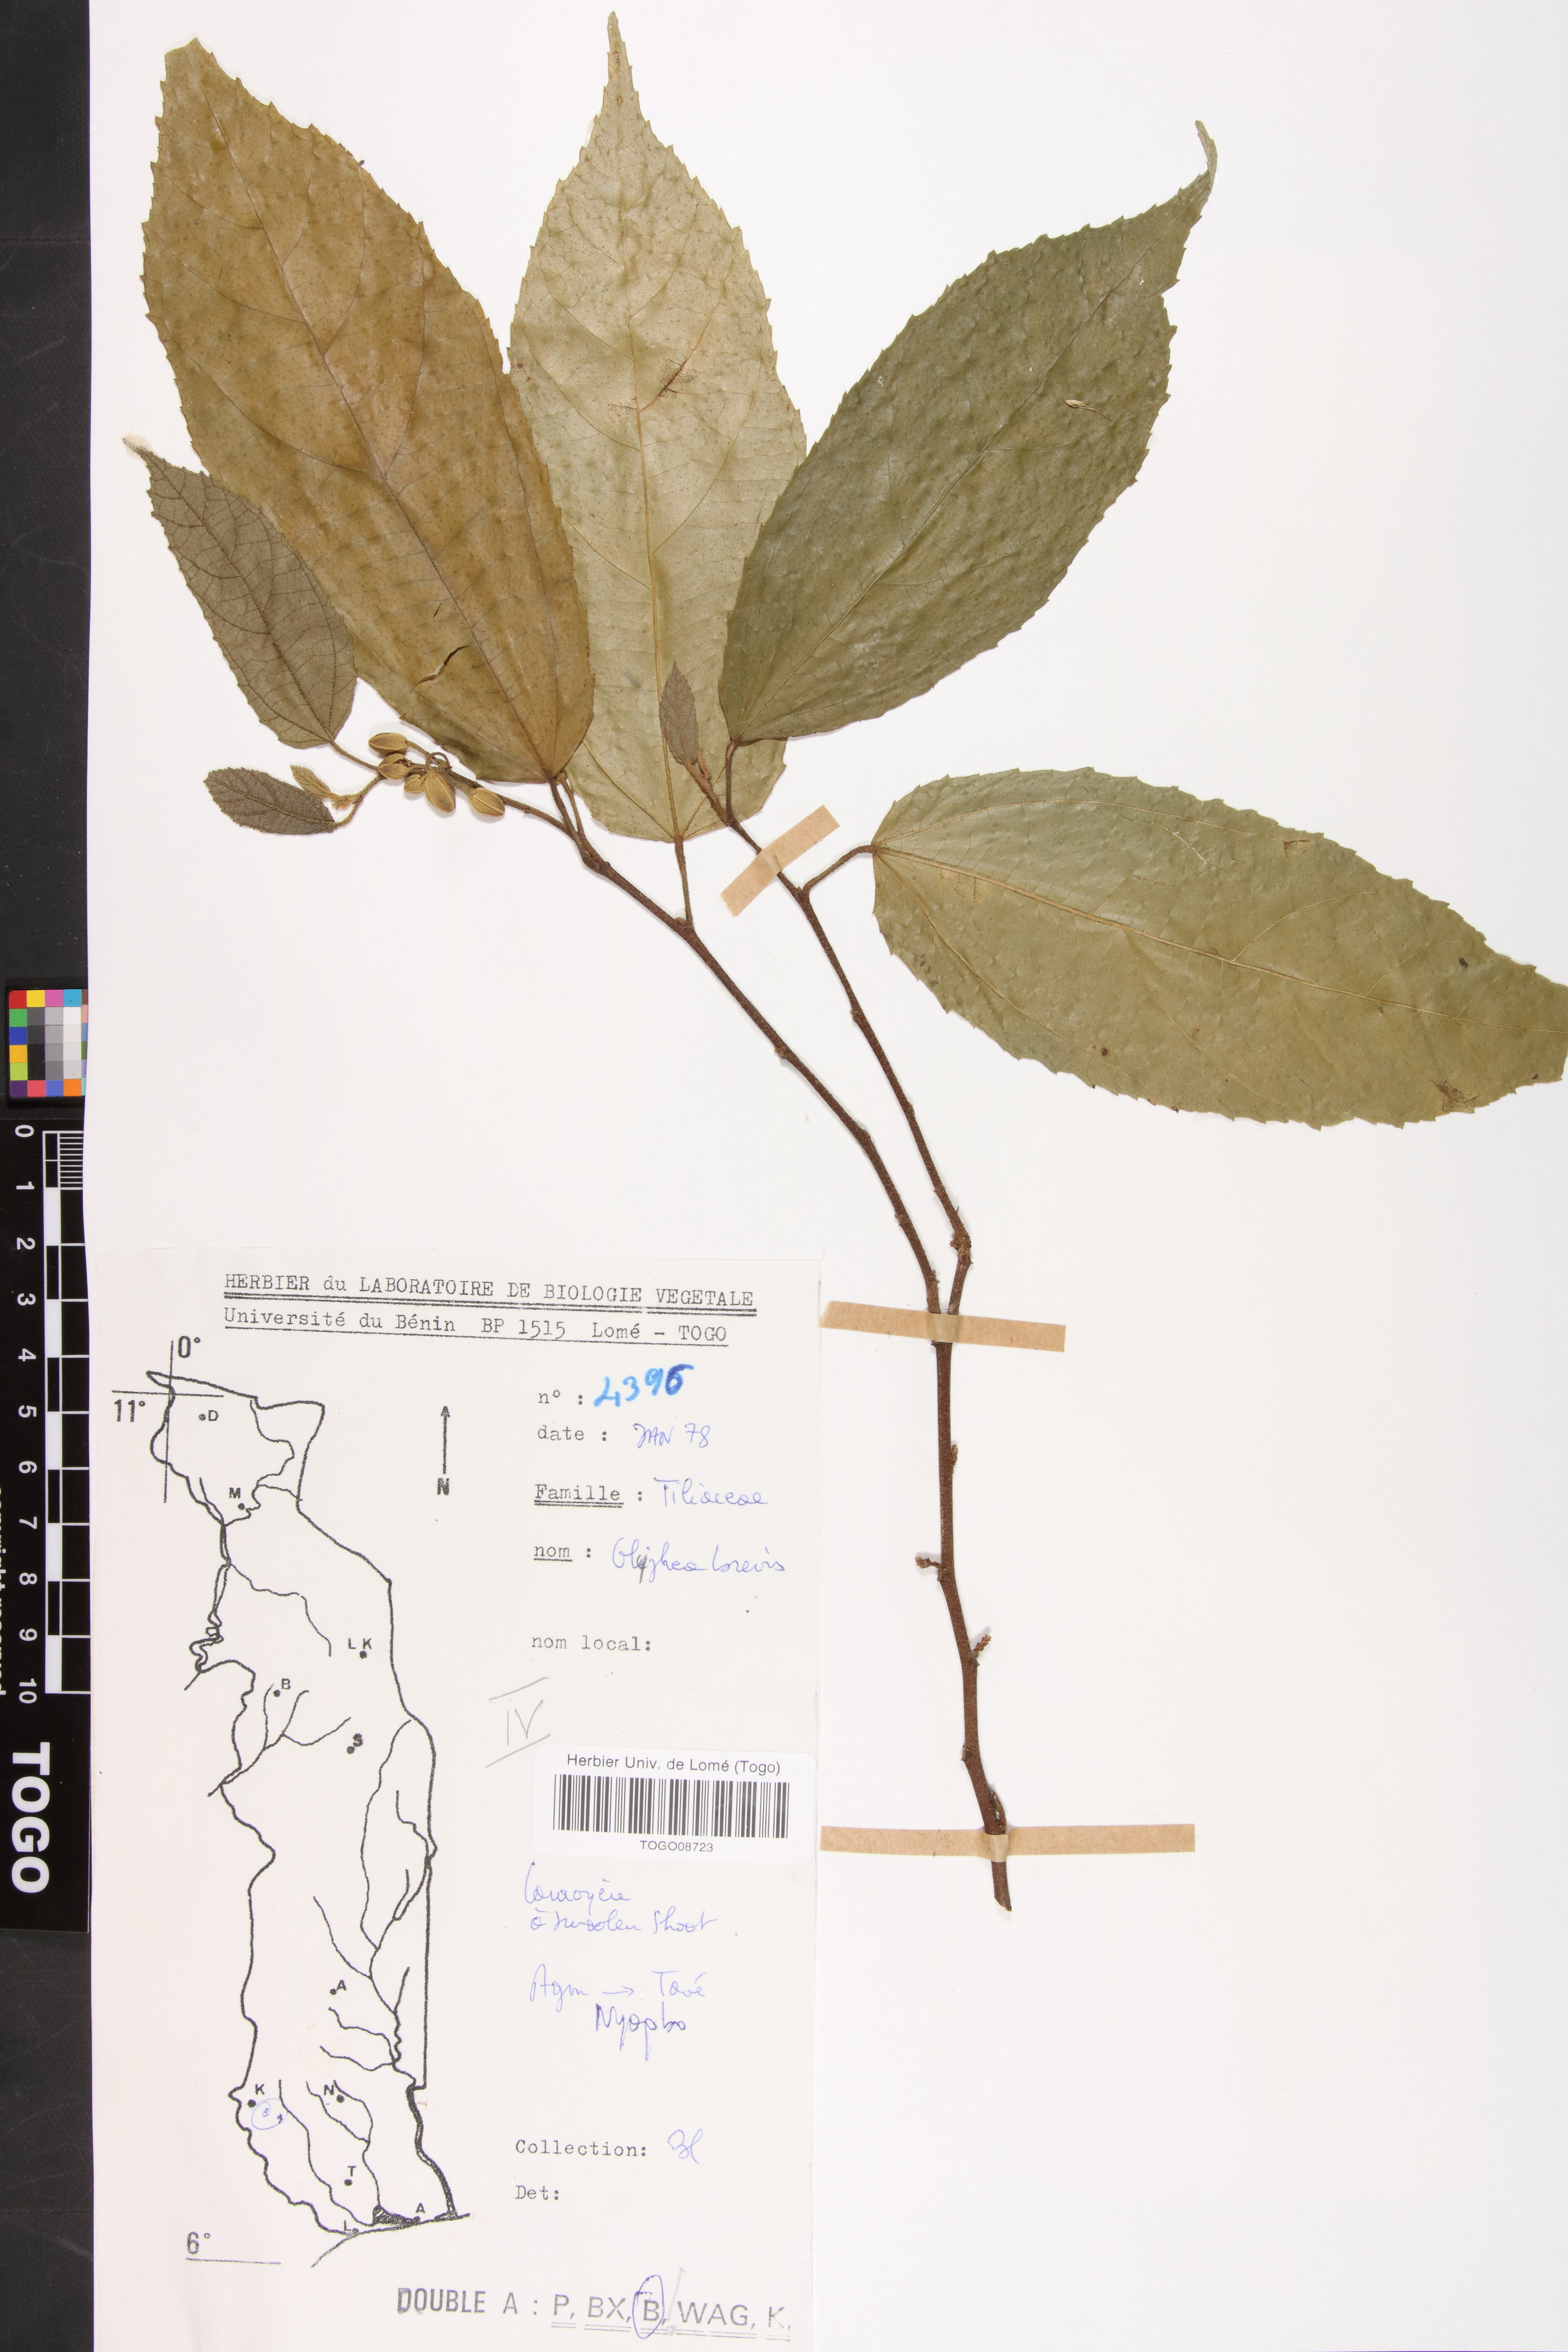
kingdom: Plantae
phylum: Tracheophyta
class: Magnoliopsida
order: Malvales
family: Malvaceae
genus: Glyphaea
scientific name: Glyphaea brevis
